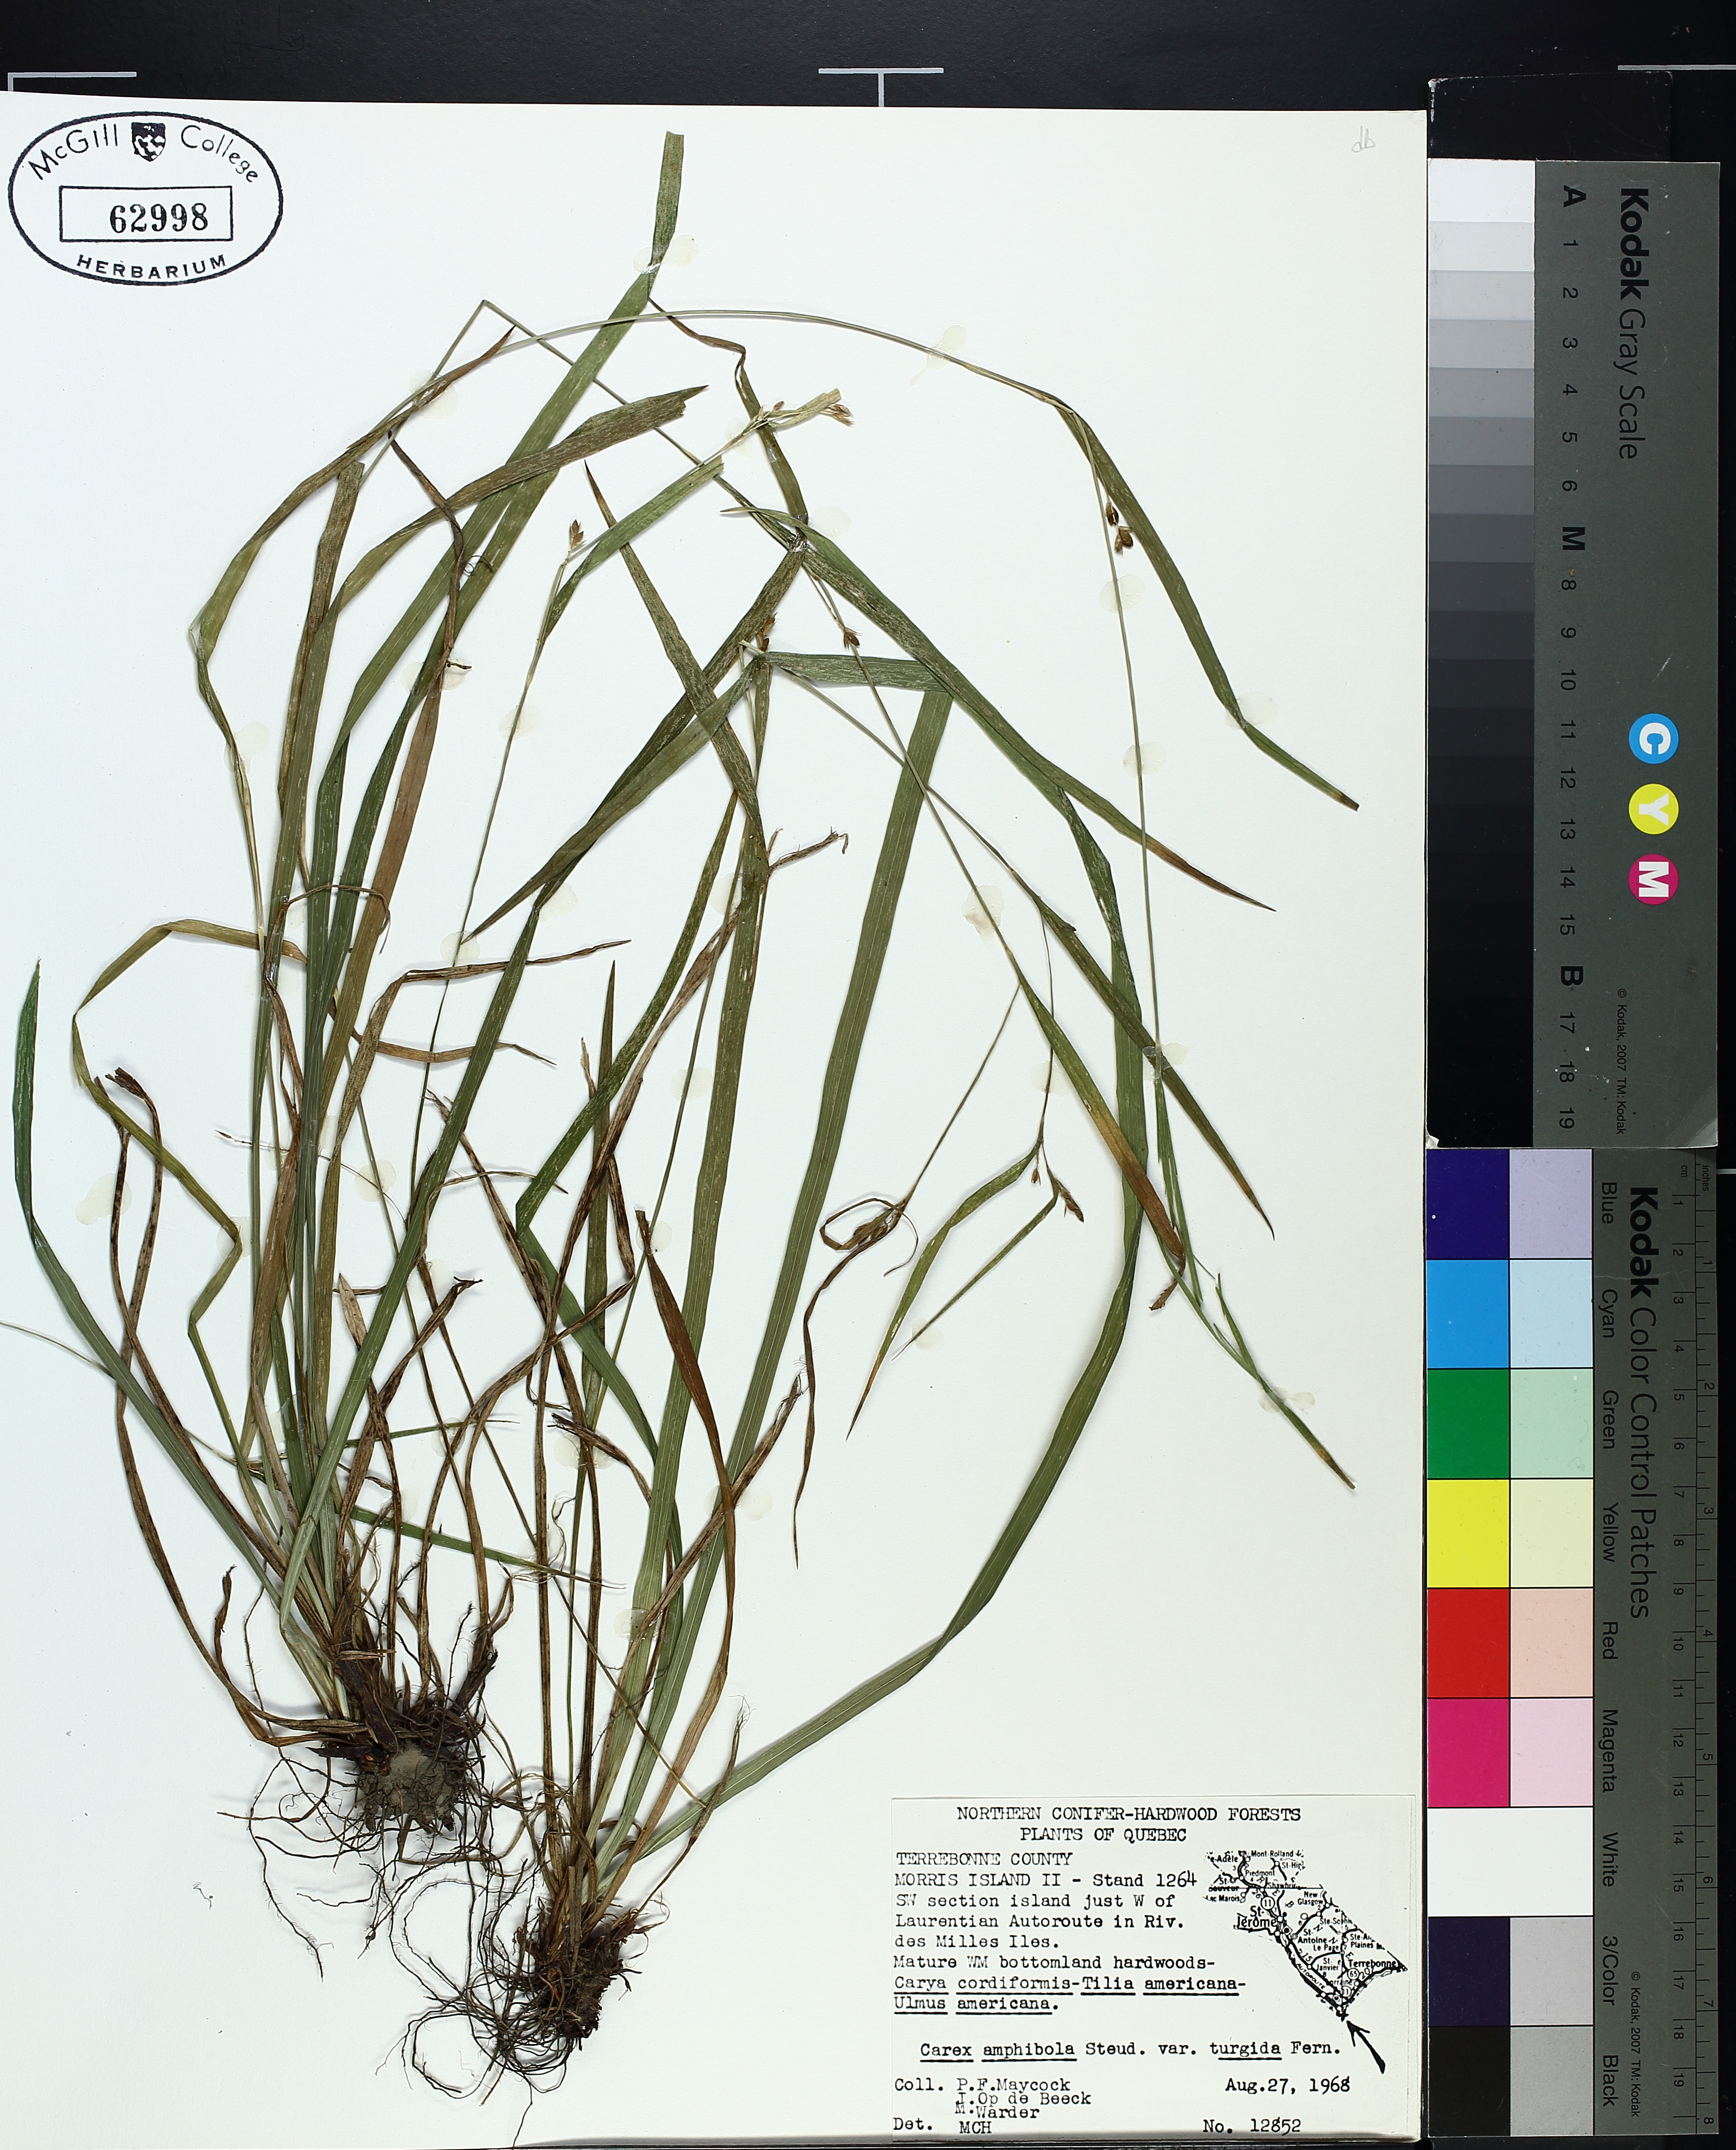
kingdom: Plantae
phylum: Tracheophyta
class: Liliopsida
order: Poales
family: Cyperaceae
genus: Carex
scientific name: Carex grisea
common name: Eastern narrow-leaved sedge
